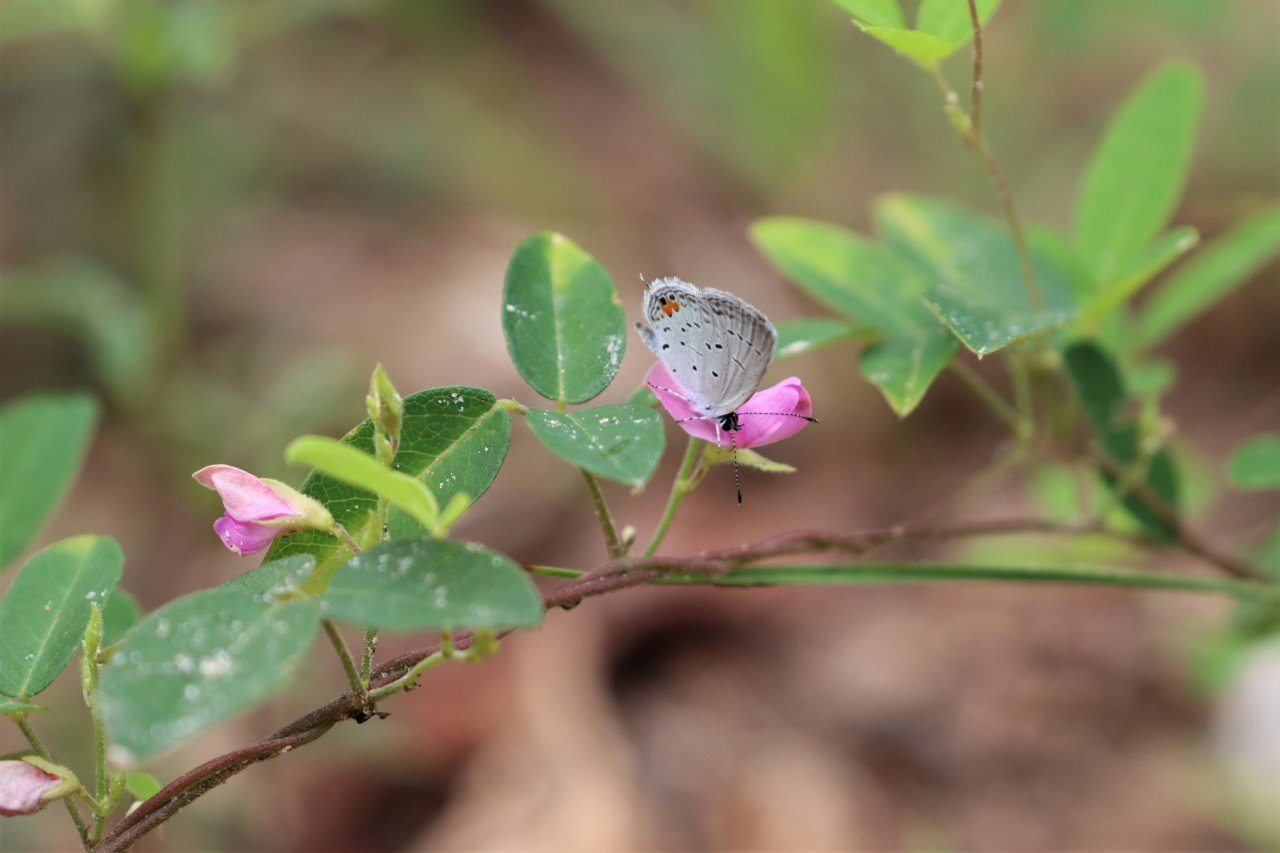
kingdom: Animalia
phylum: Arthropoda
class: Insecta
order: Lepidoptera
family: Lycaenidae
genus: Elkalyce
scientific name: Elkalyce comyntas
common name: Eastern Tailed-Blue
